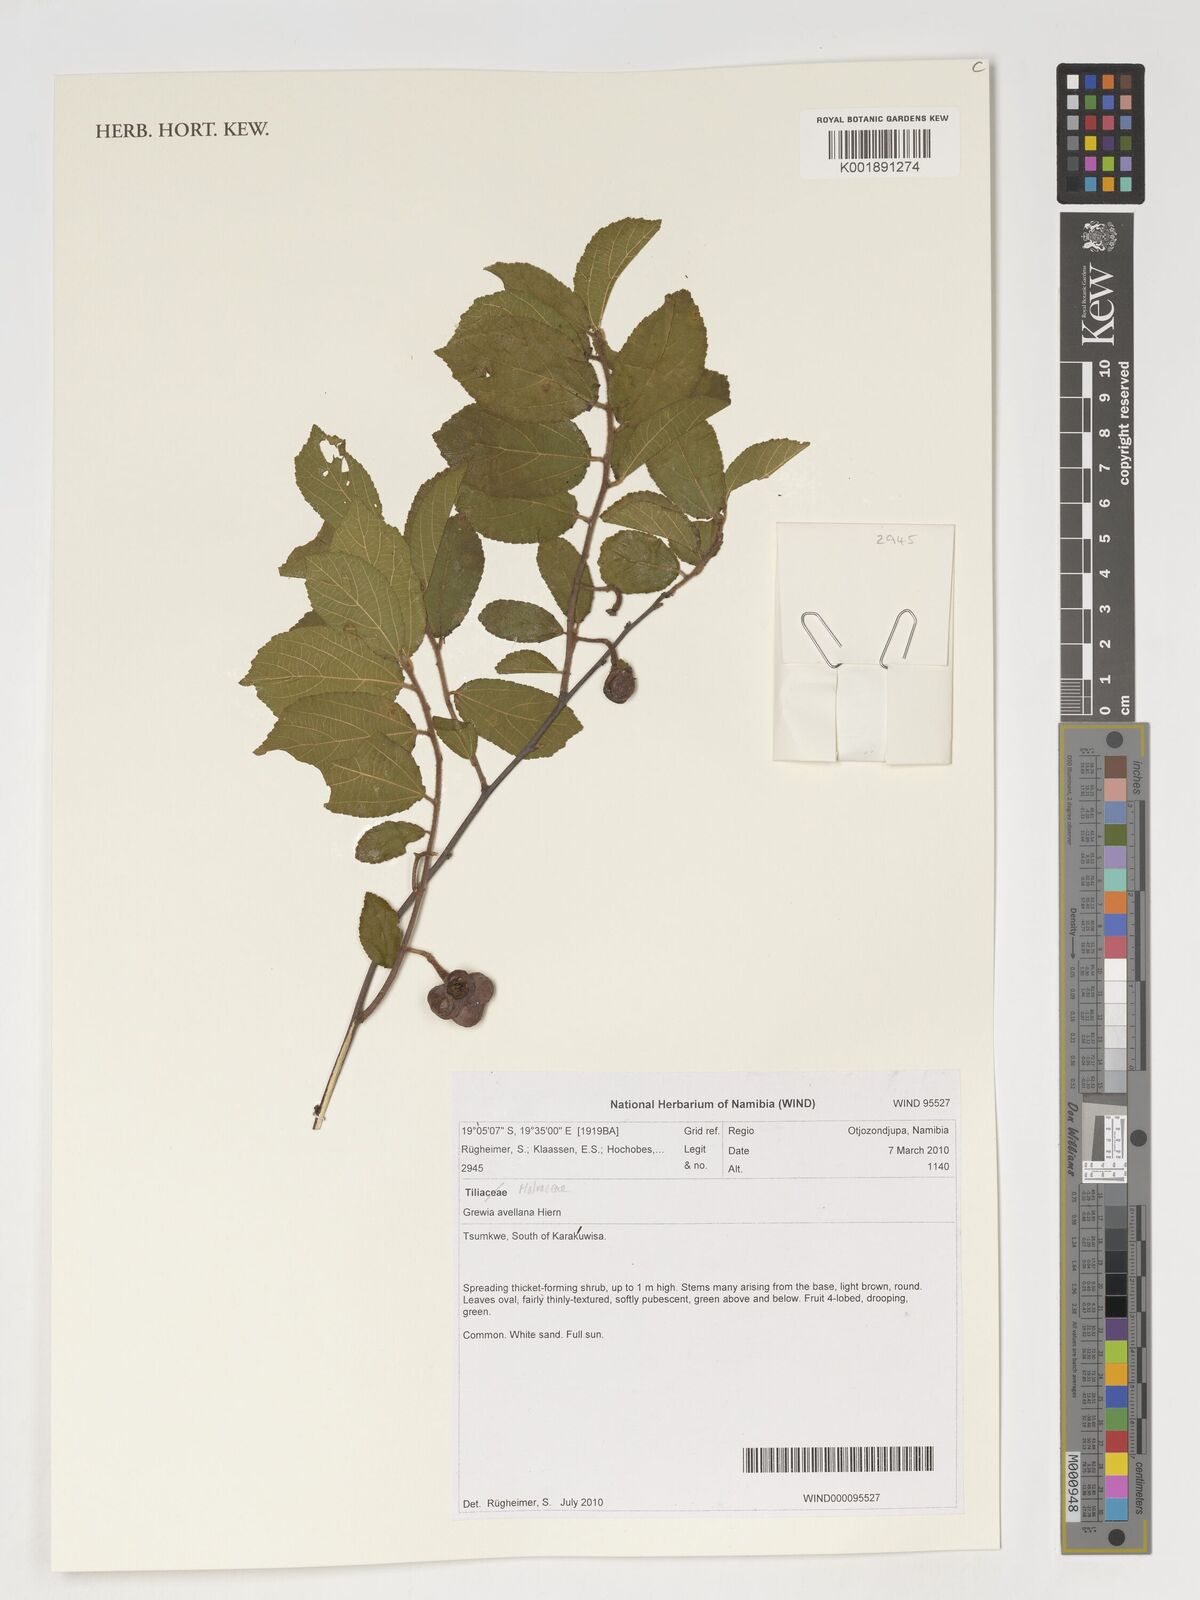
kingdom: Plantae
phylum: Tracheophyta
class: Magnoliopsida
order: Malvales
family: Malvaceae
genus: Grewia
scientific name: Grewia avellana
